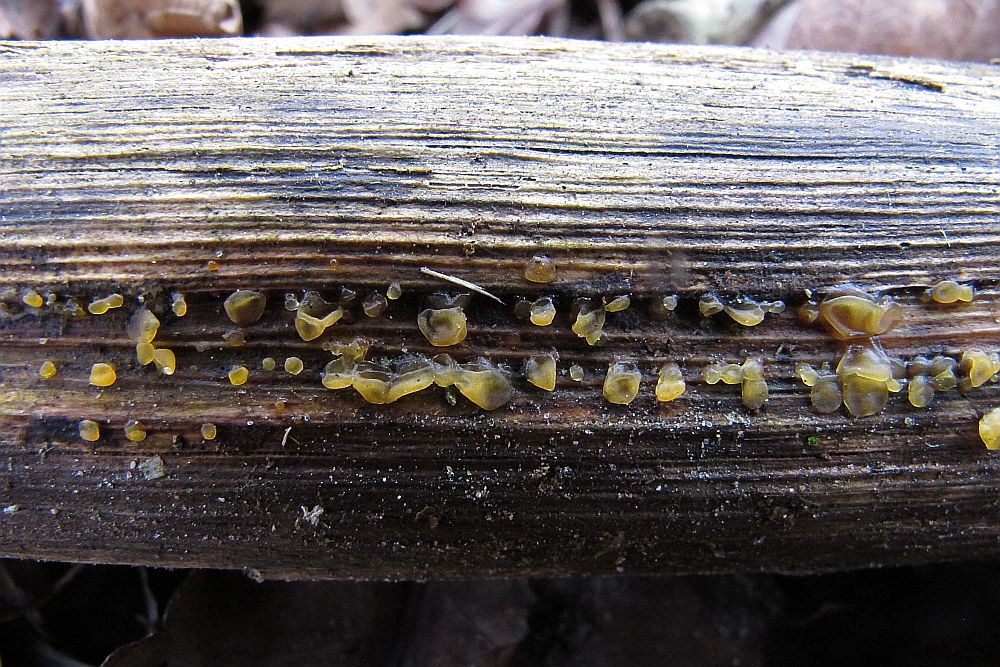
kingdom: Fungi
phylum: Basidiomycota
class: Dacrymycetes
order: Dacrymycetales
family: Dacrymycetaceae
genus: Dacrymyces
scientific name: Dacrymyces lacrymalis
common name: rynket tåresvamp
